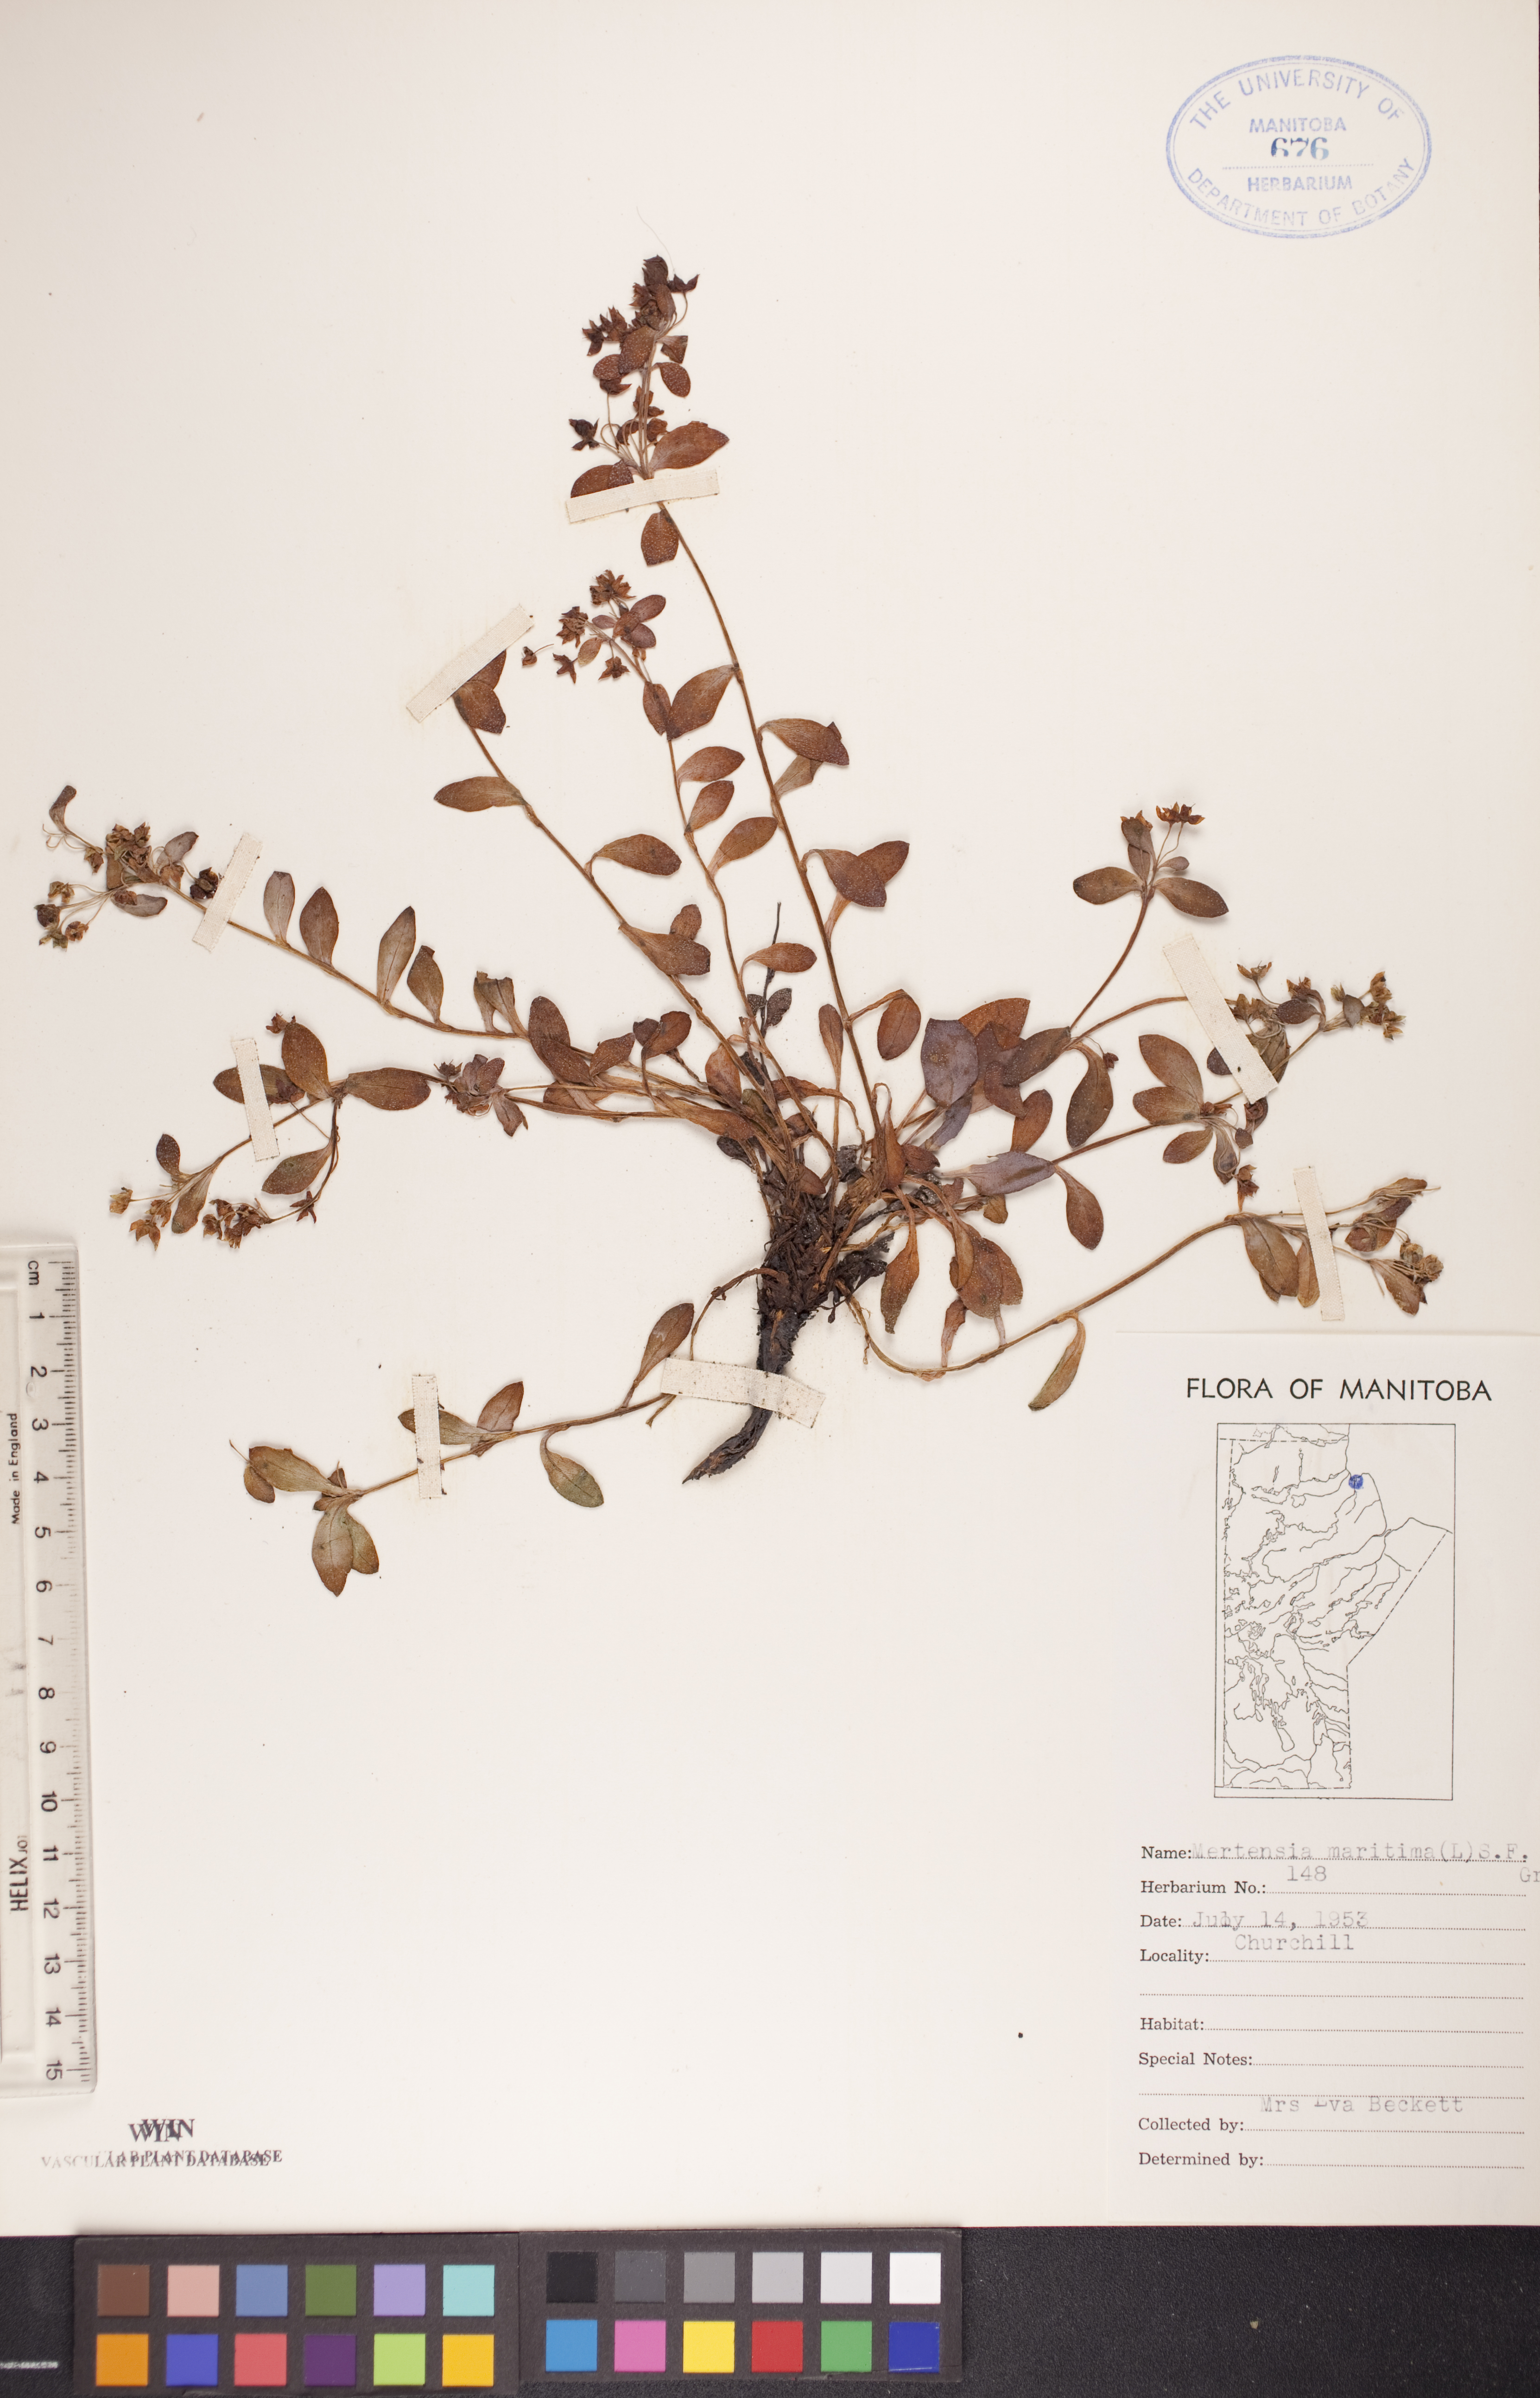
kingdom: Plantae
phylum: Tracheophyta
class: Magnoliopsida
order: Boraginales
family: Boraginaceae
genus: Mertensia
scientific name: Mertensia maritima
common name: Oysterplant
